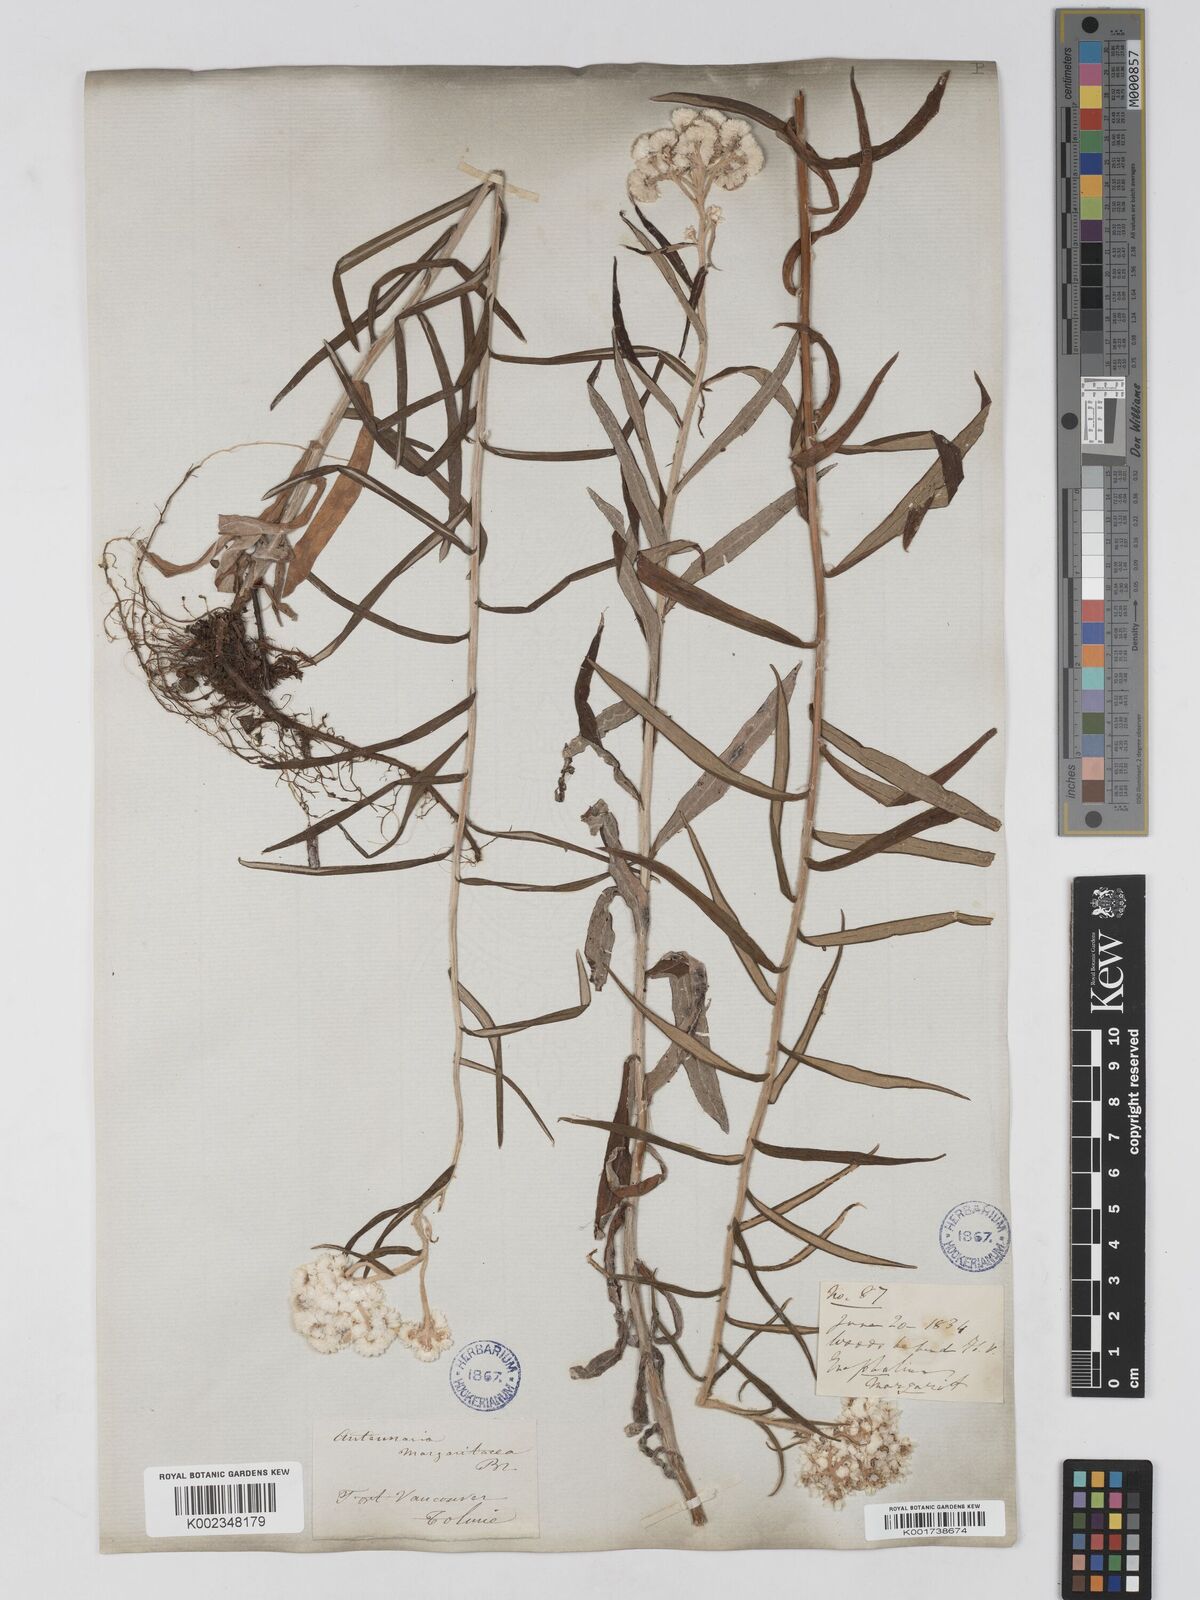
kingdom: Plantae
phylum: Tracheophyta
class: Magnoliopsida
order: Asterales
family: Asteraceae
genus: Anaphalis
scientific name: Anaphalis margaritacea
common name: Pearly everlasting
